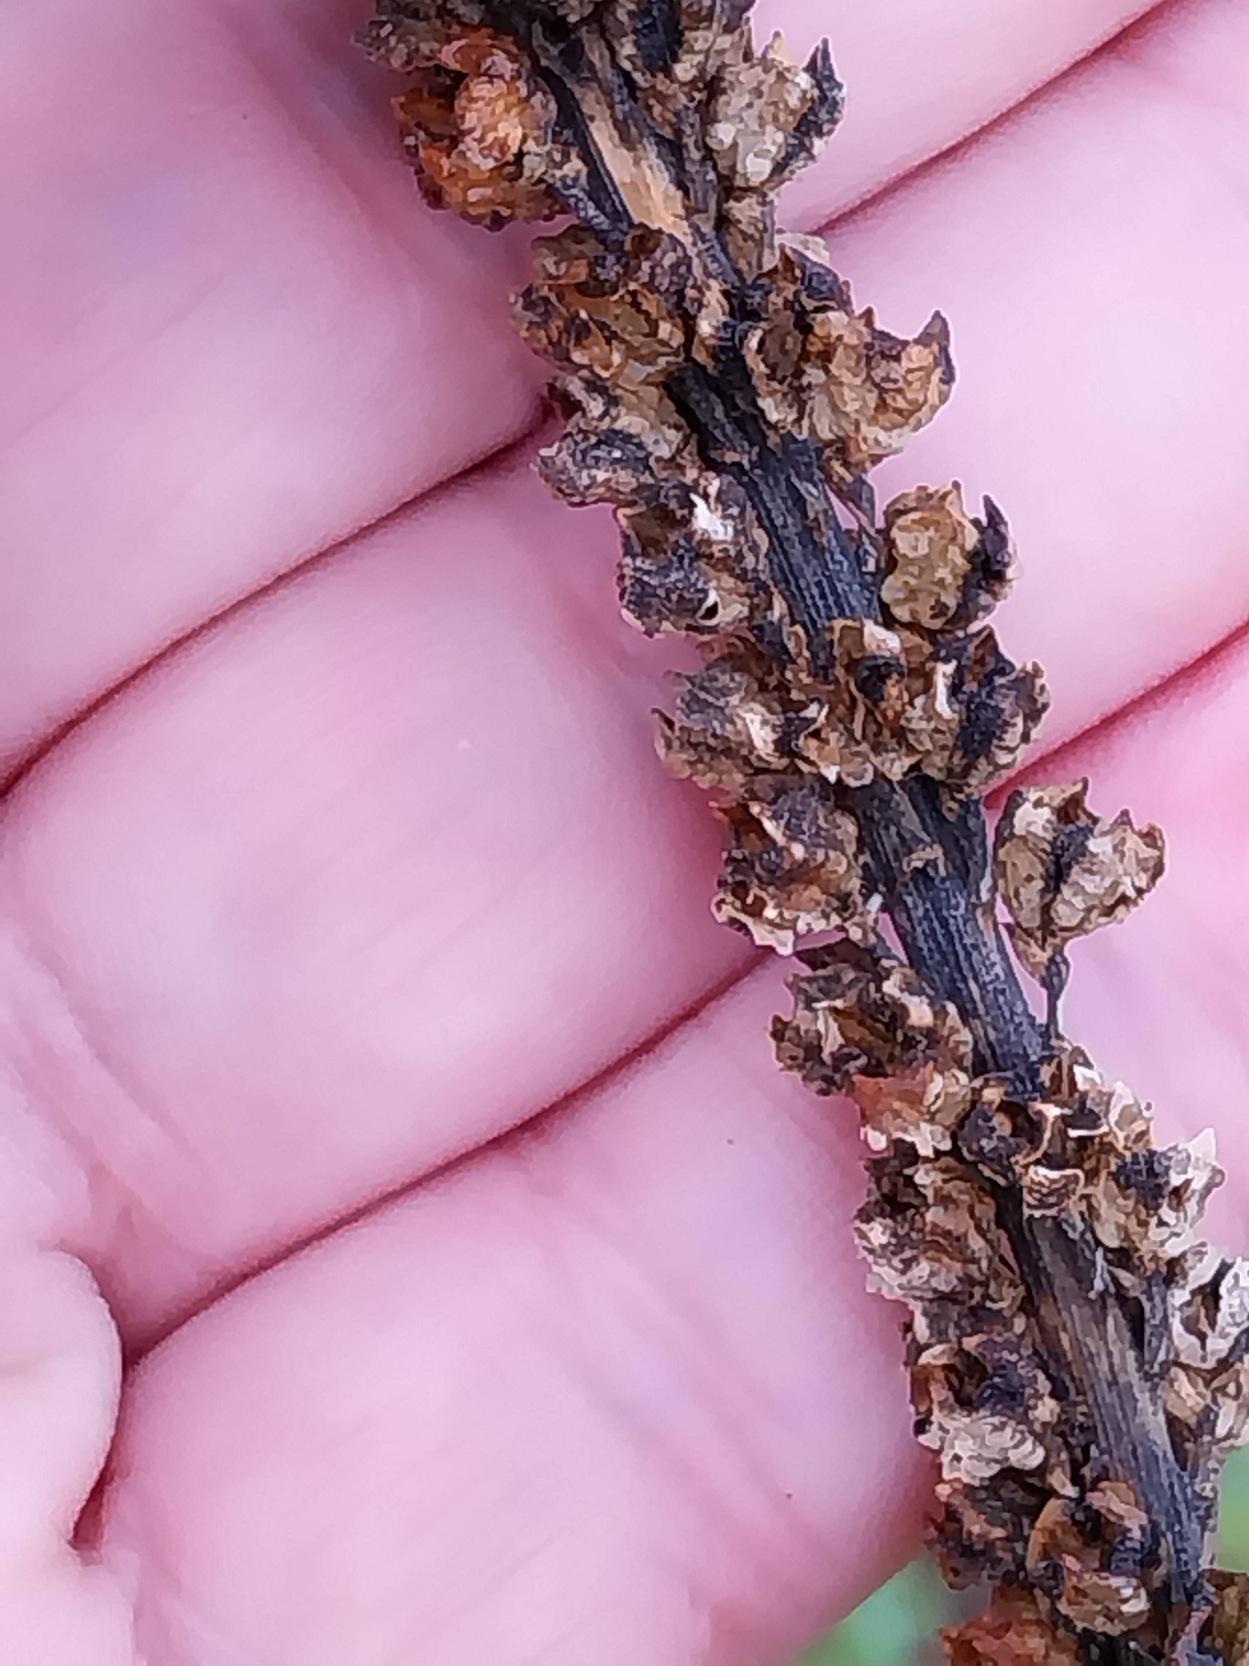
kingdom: Plantae
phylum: Tracheophyta
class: Magnoliopsida
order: Brassicales
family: Resedaceae
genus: Reseda
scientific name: Reseda luteola
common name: Farve-reseda
